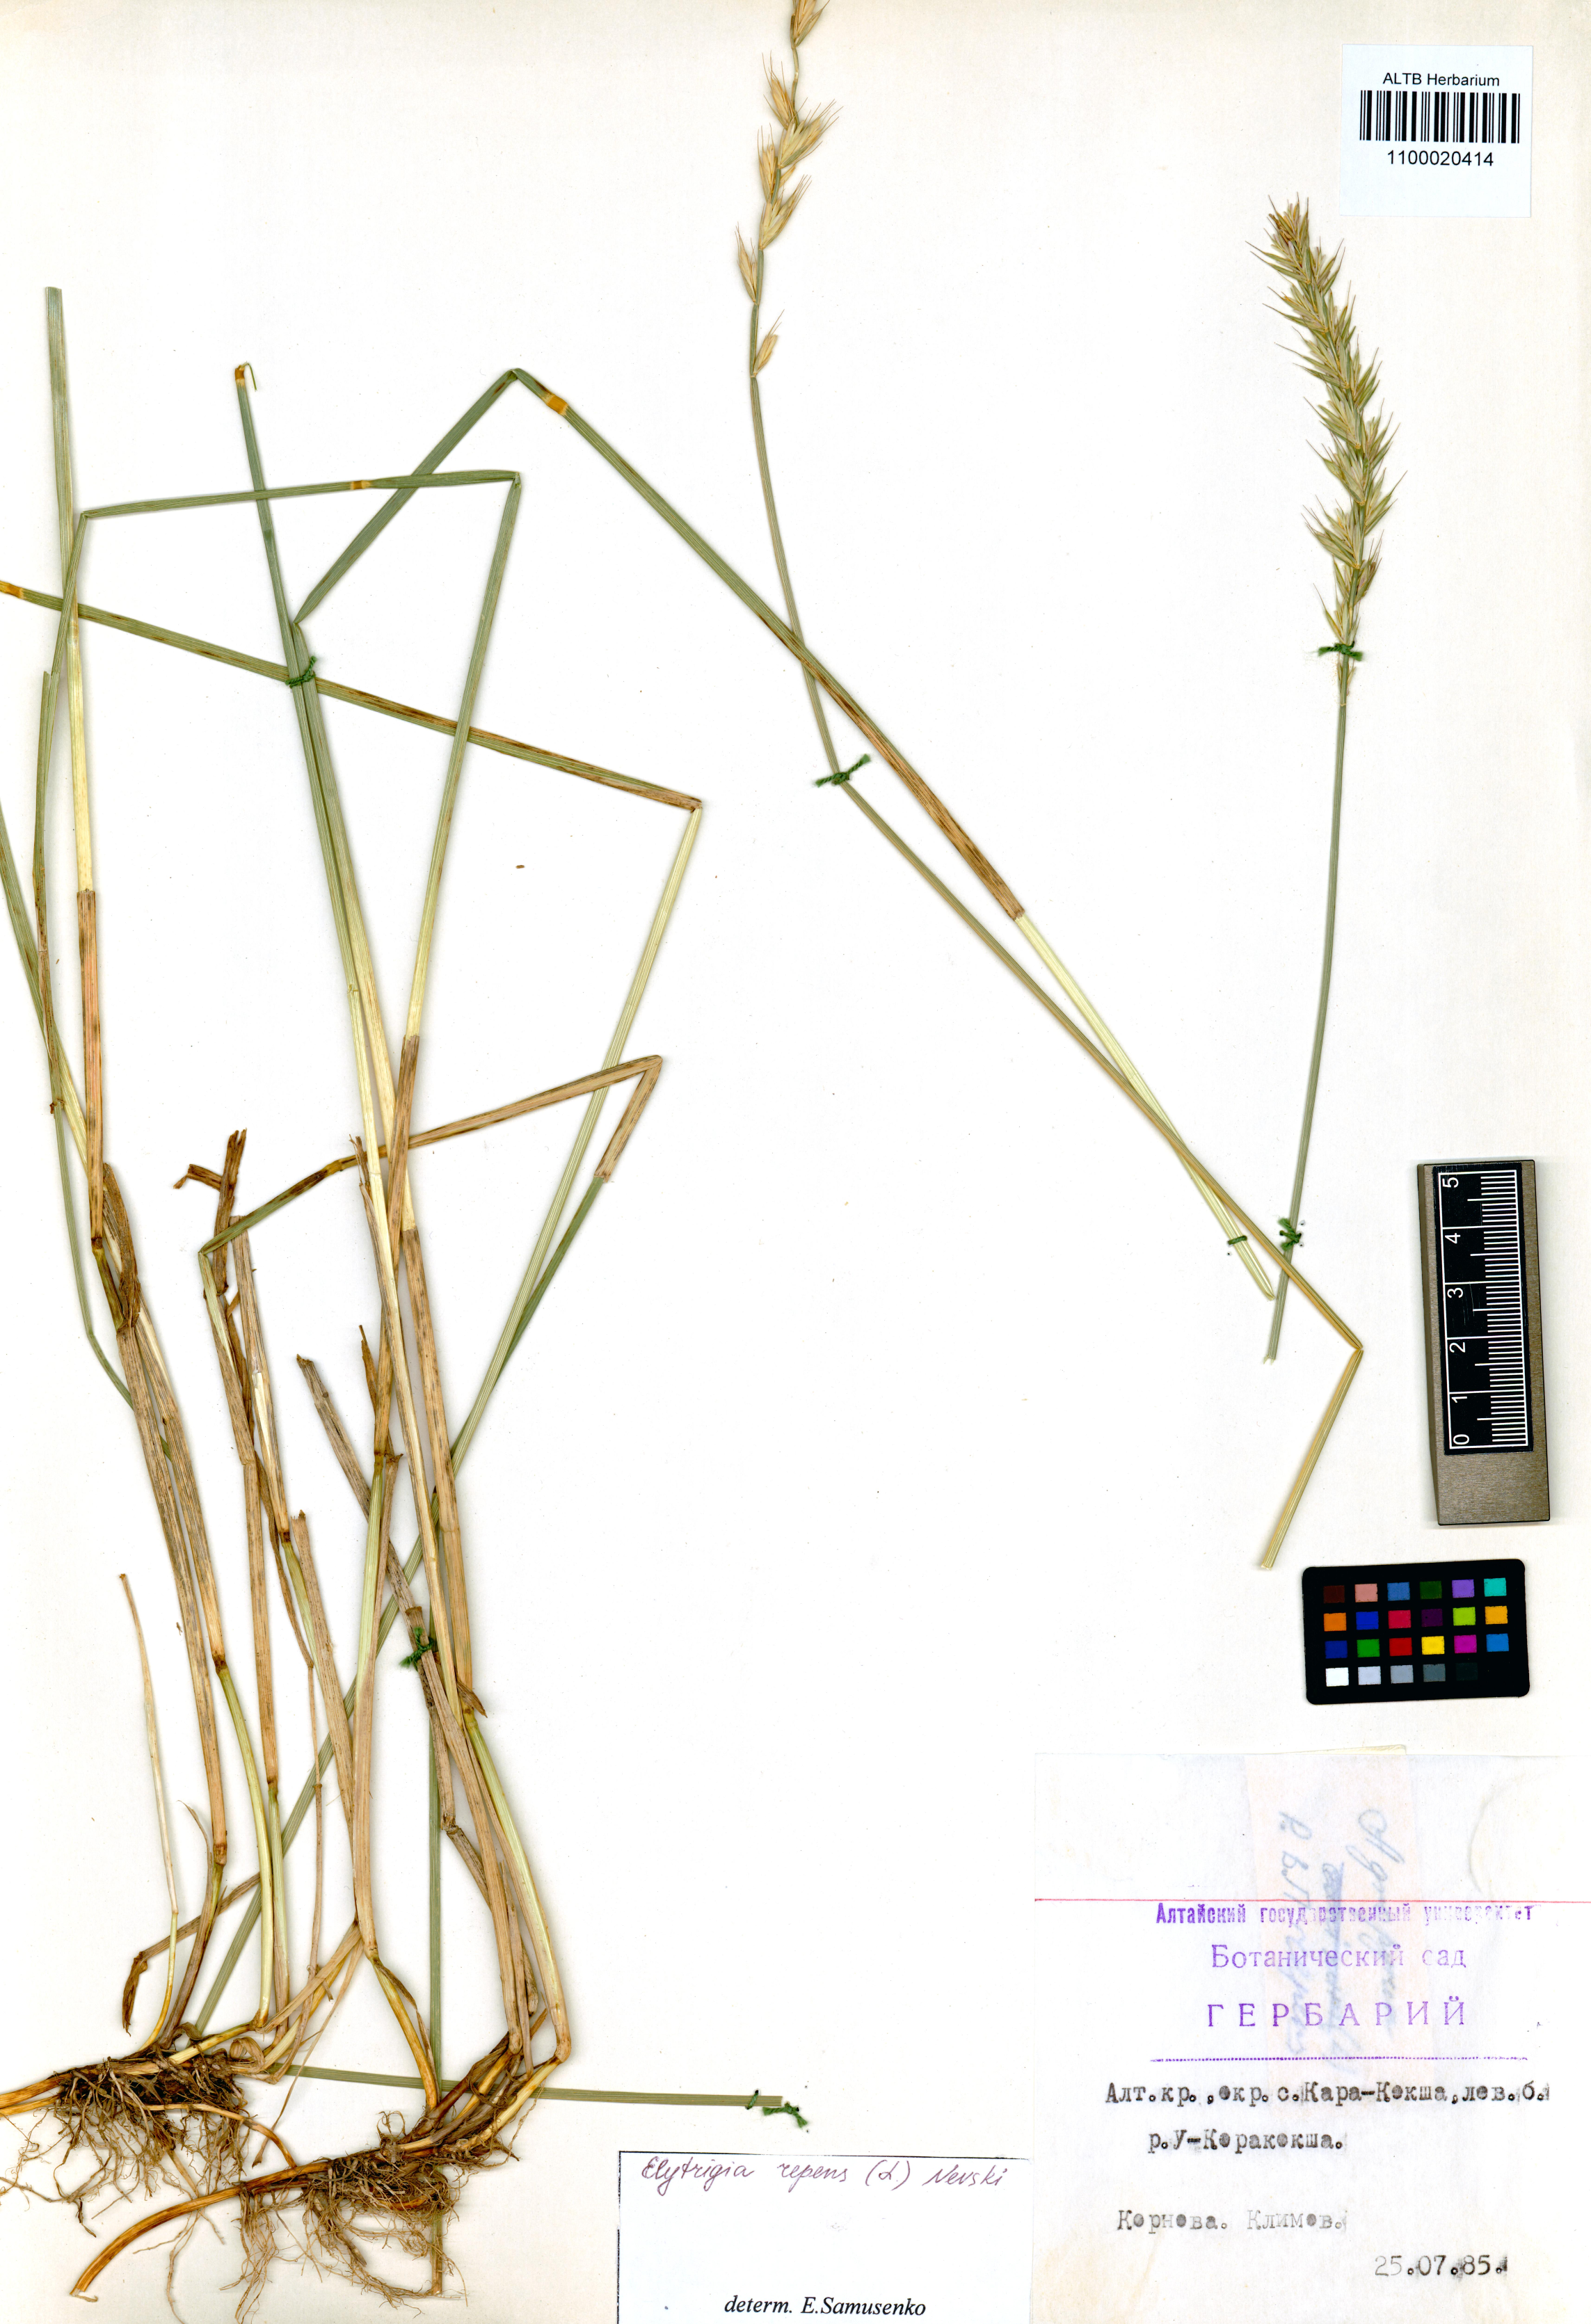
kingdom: Plantae
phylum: Tracheophyta
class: Liliopsida
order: Poales
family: Poaceae
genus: Elymus
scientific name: Elymus repens
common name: Quackgrass
